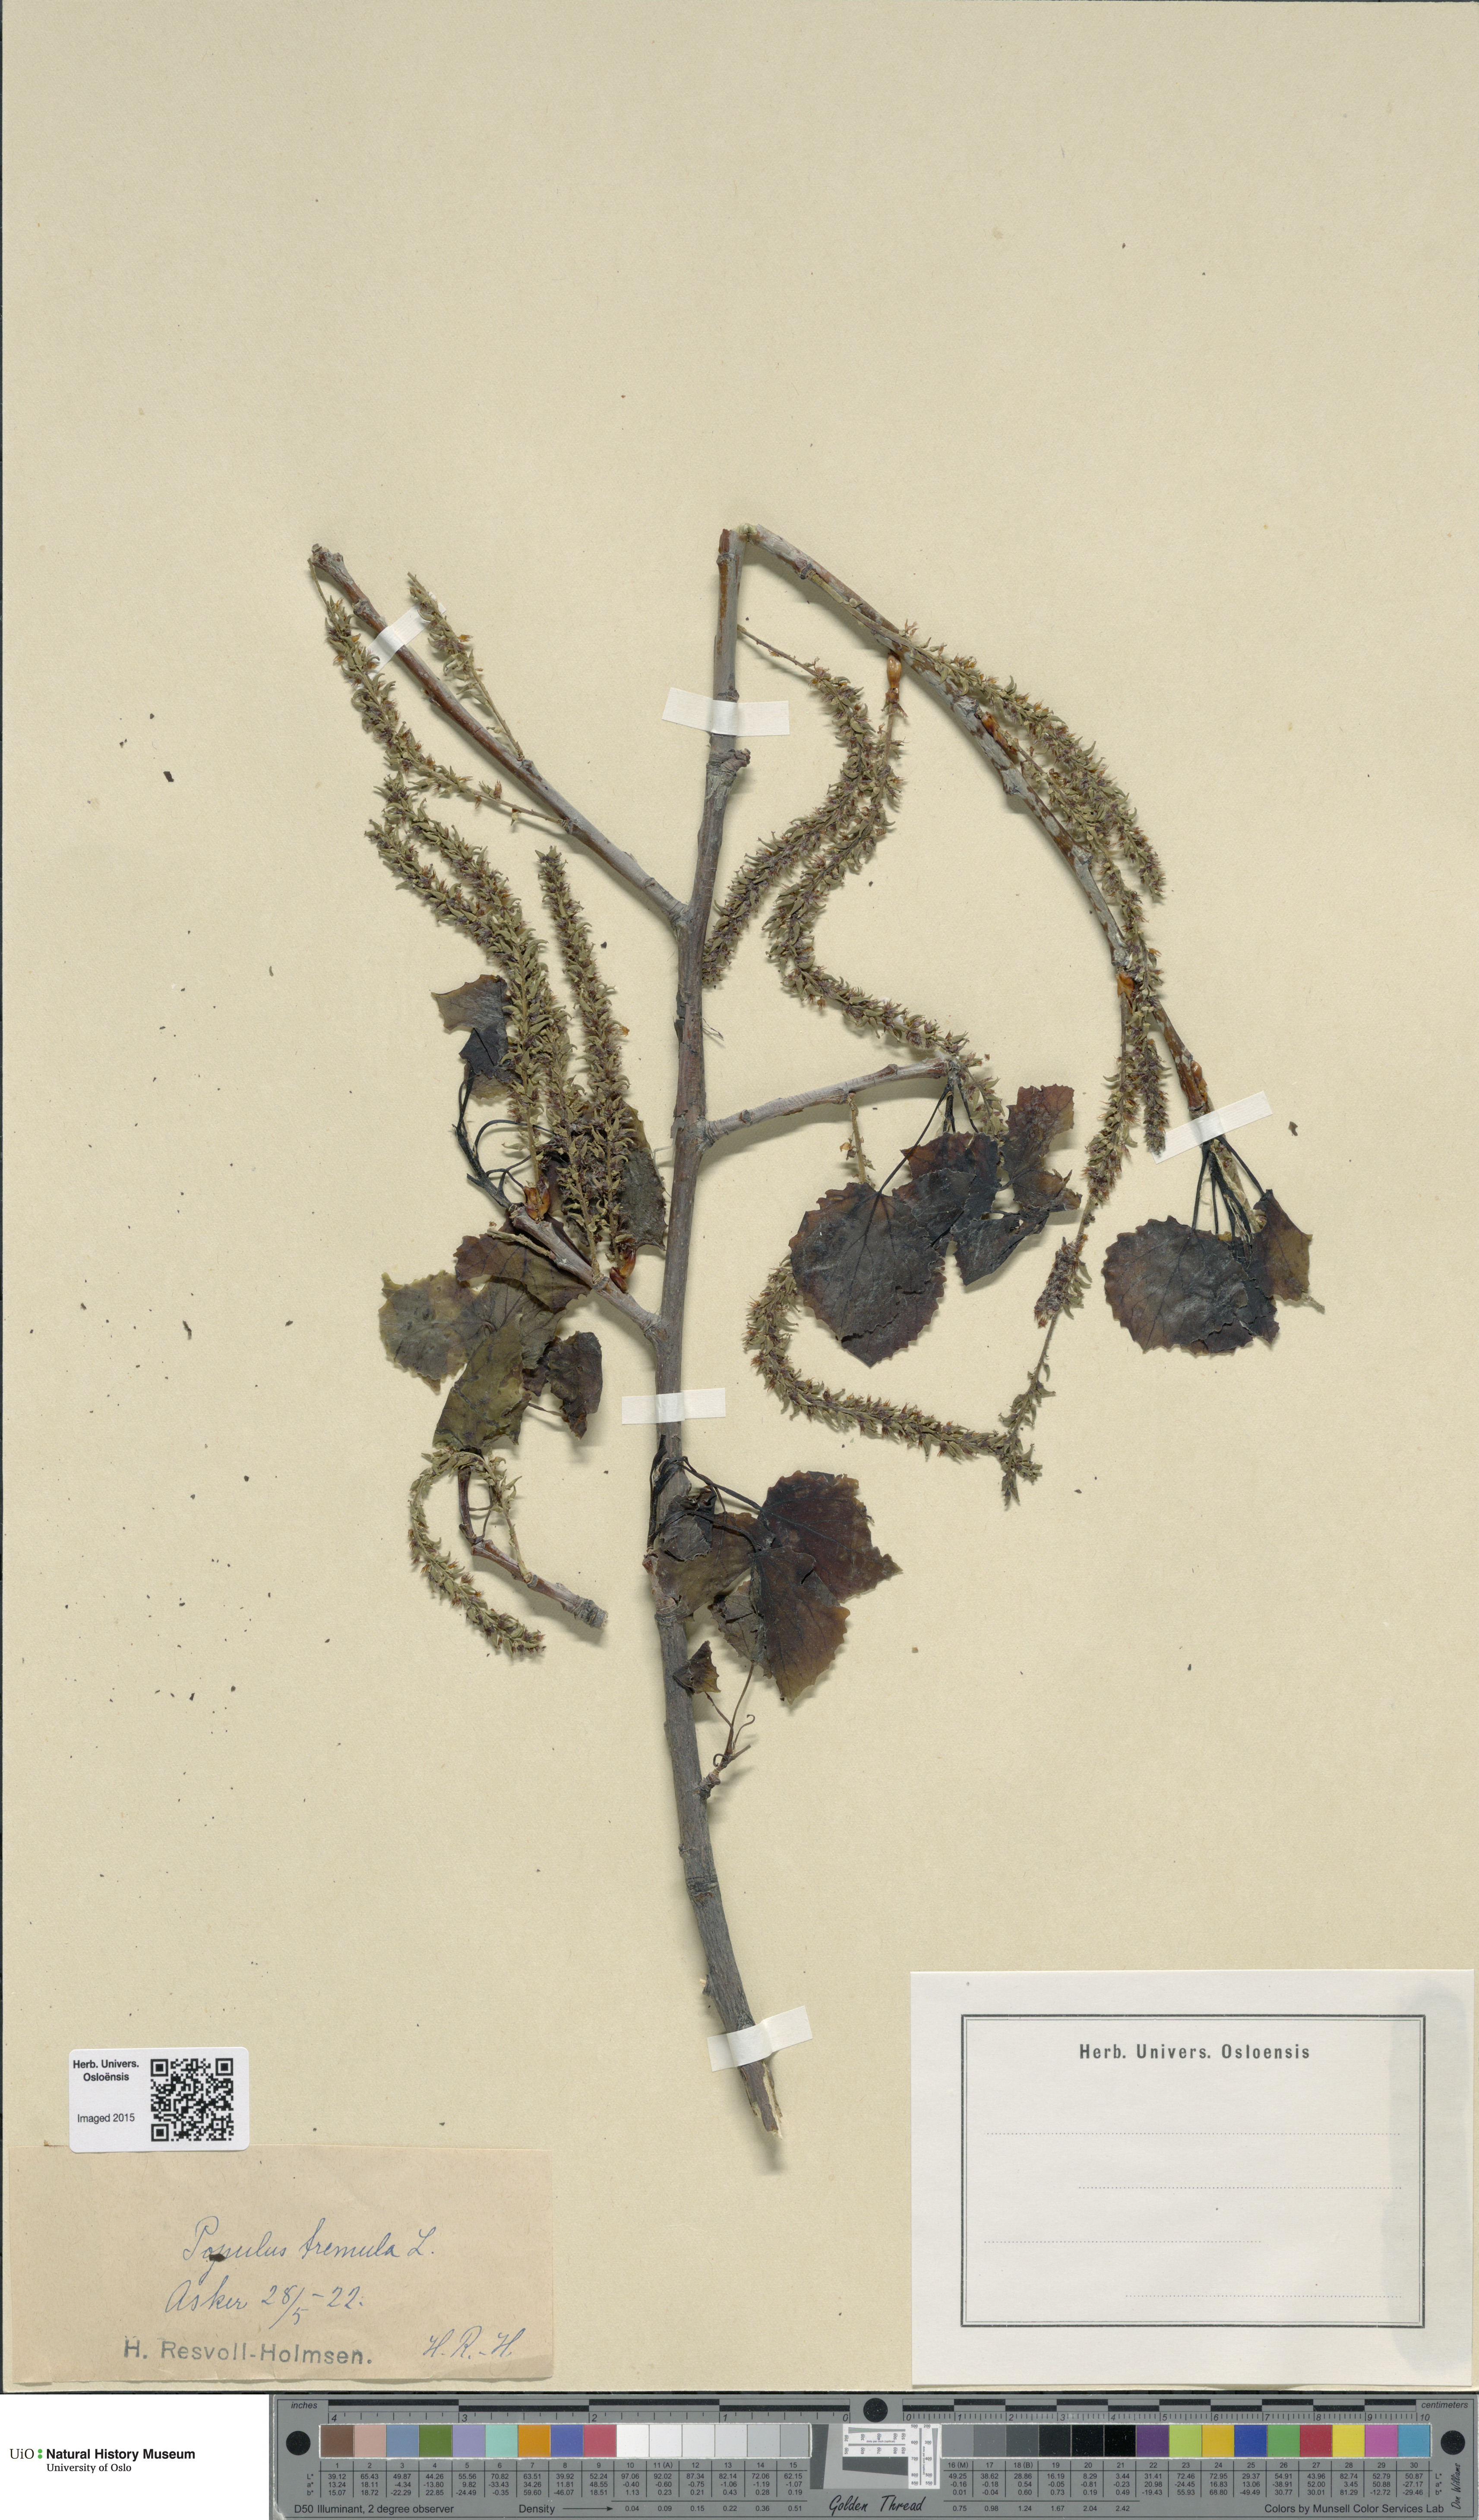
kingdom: Plantae
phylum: Tracheophyta
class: Magnoliopsida
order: Malpighiales
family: Salicaceae
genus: Populus
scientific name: Populus tremula
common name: European aspen
